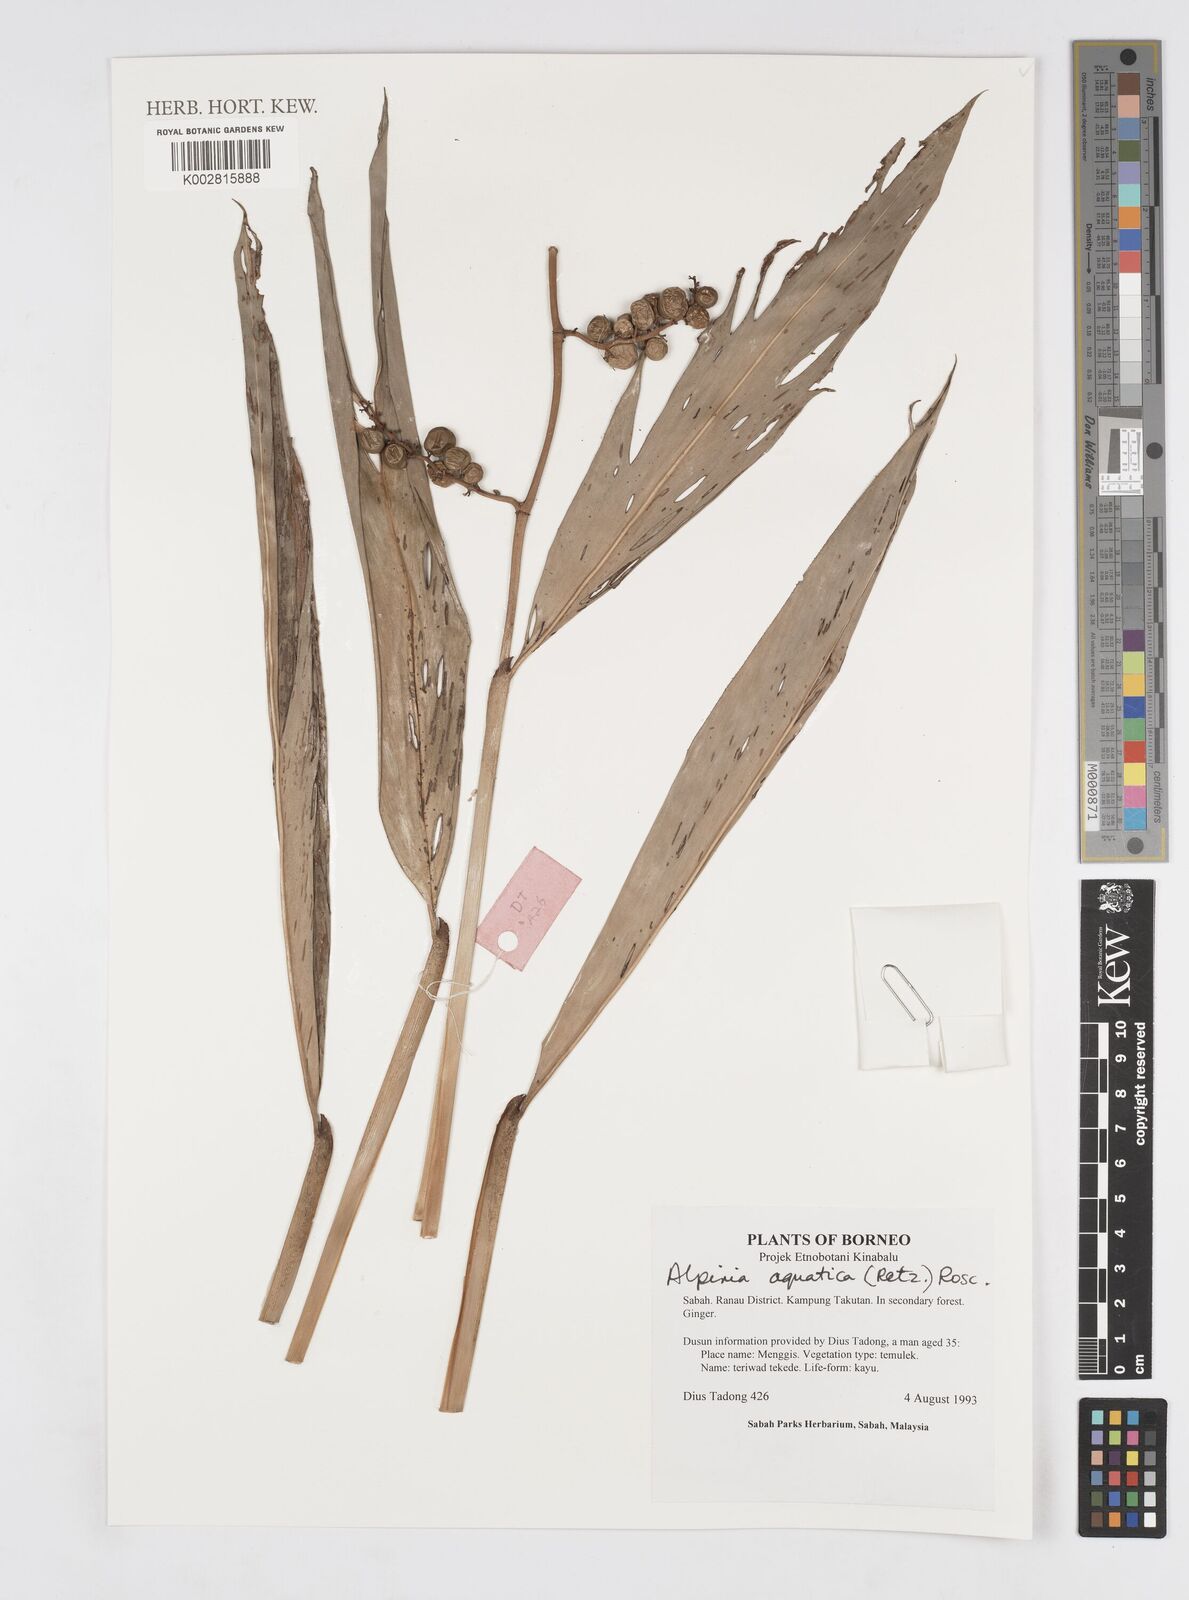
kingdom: Plantae
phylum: Tracheophyta
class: Liliopsida
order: Zingiberales
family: Zingiberaceae
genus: Alpinia
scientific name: Alpinia aquatica
